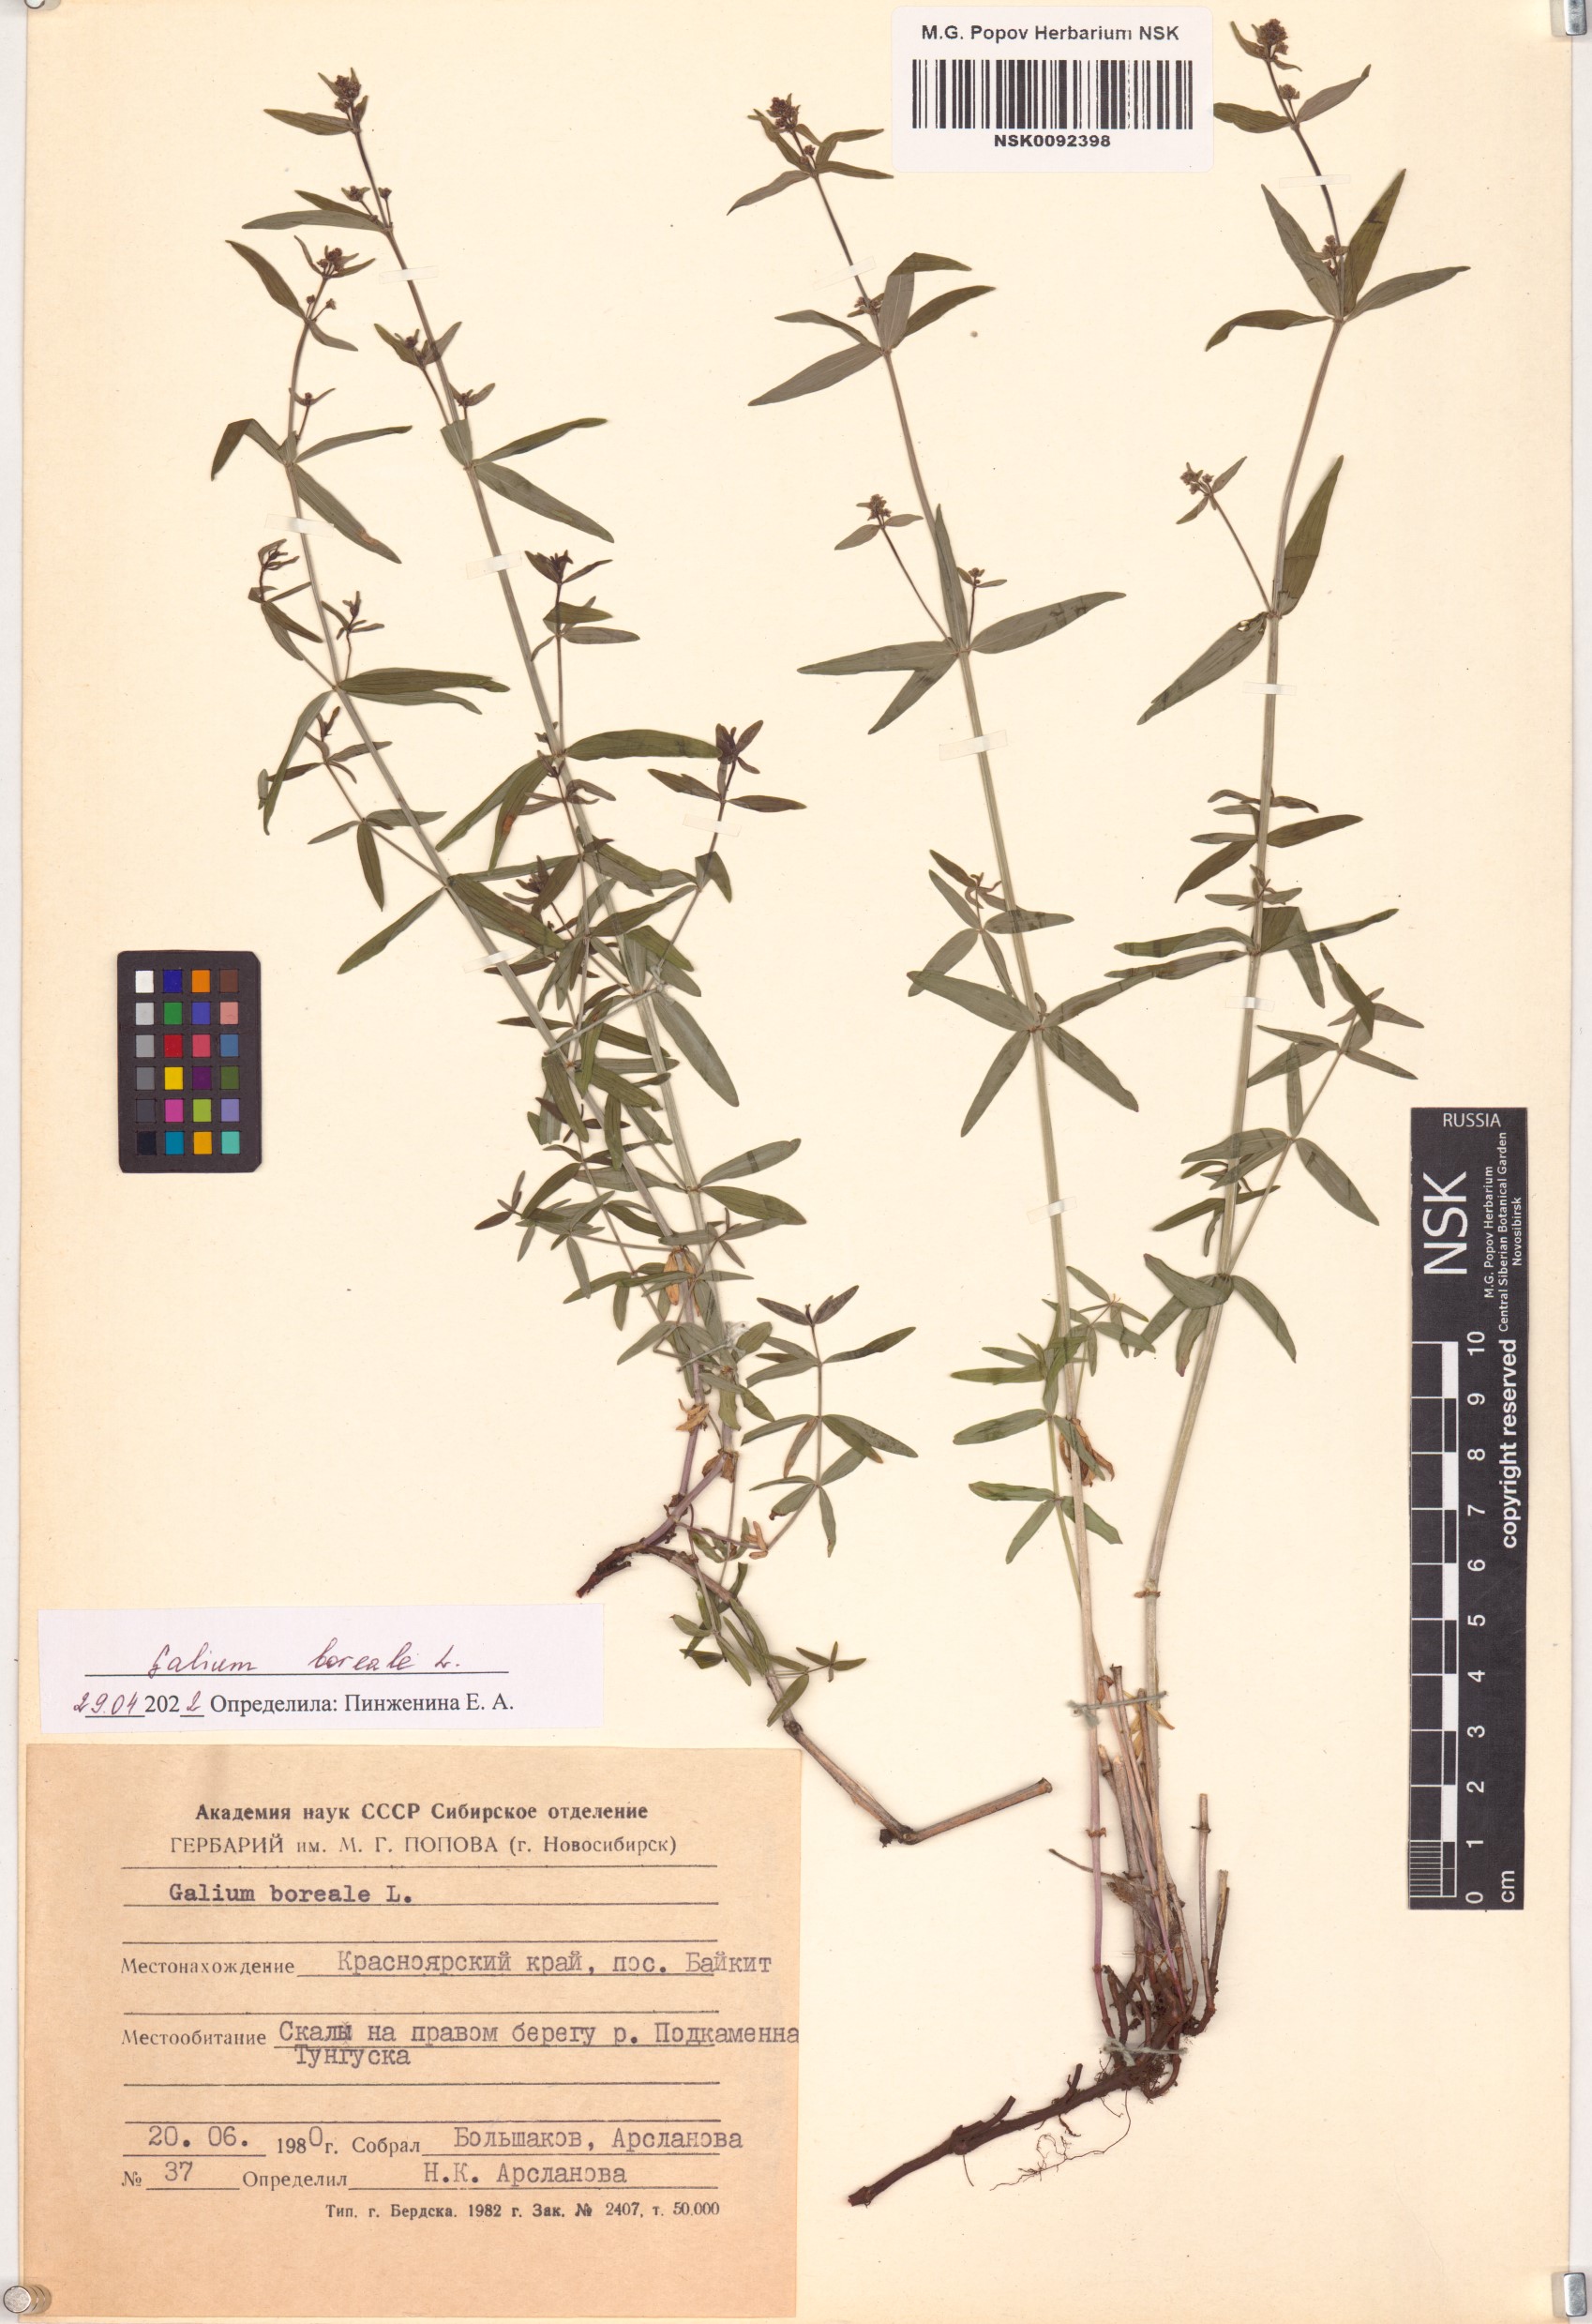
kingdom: Plantae
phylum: Tracheophyta
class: Magnoliopsida
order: Gentianales
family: Rubiaceae
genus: Galium
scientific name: Galium boreale
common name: Northern bedstraw
